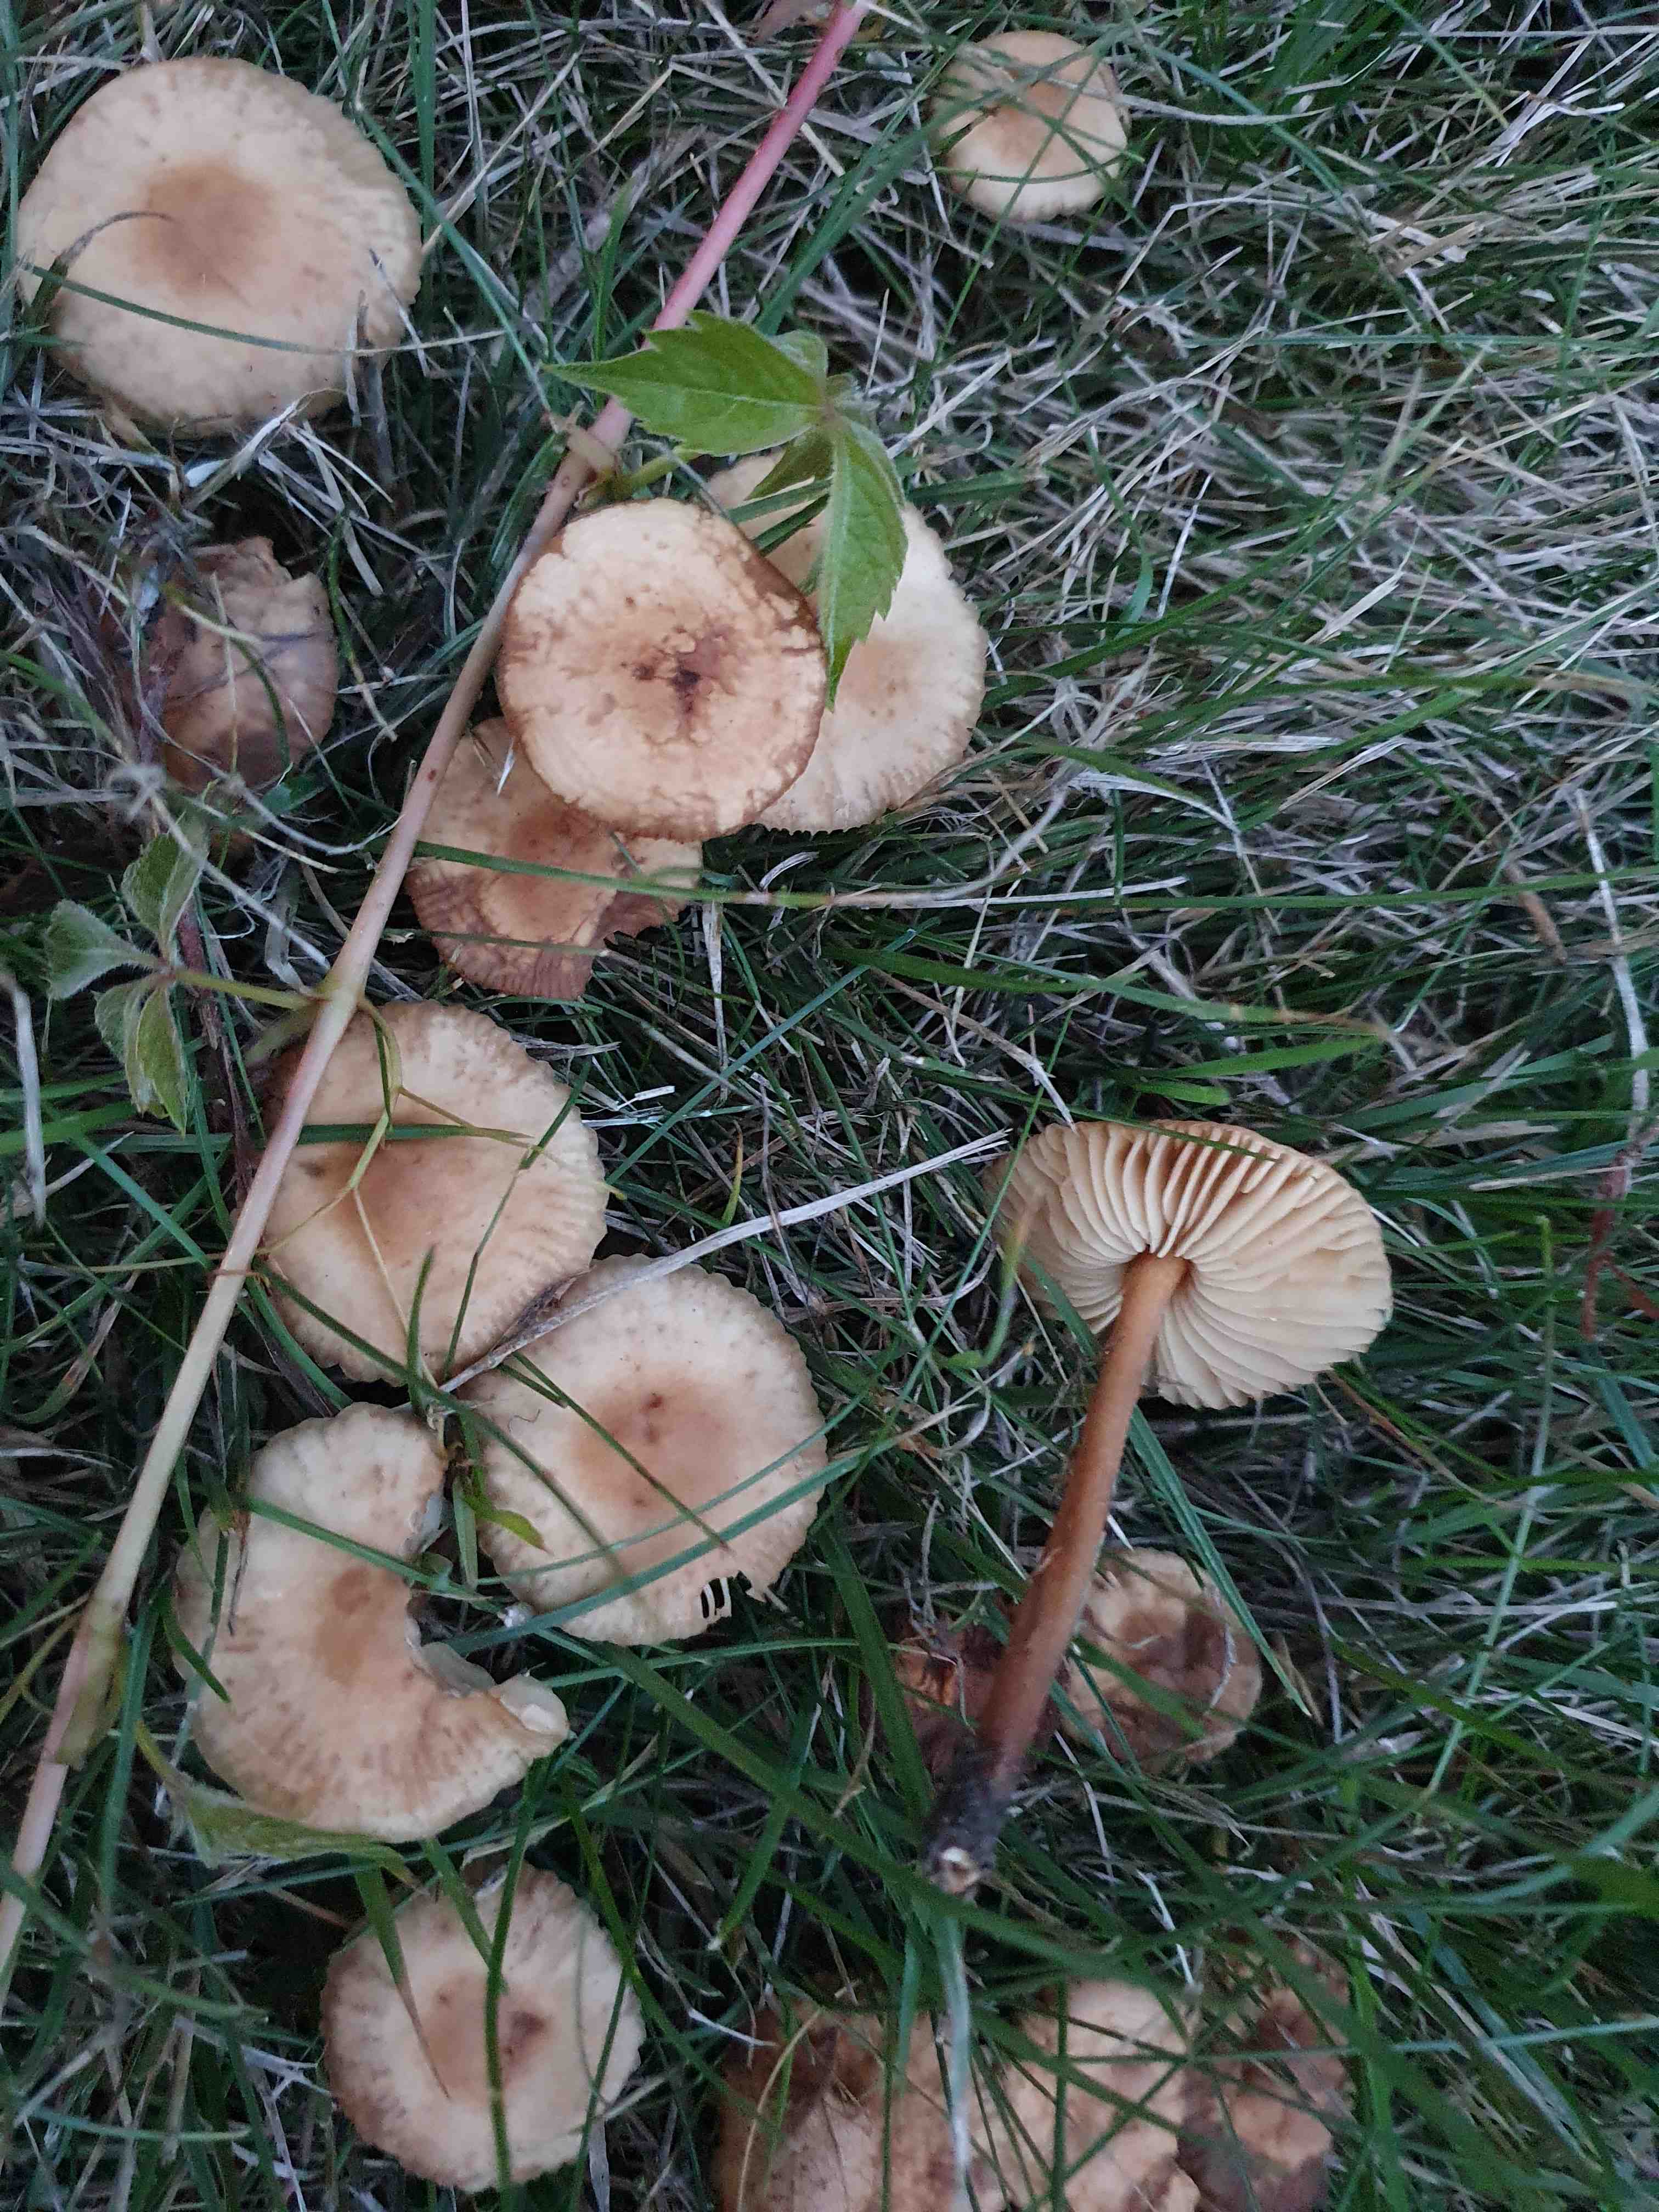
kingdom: Fungi
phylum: Basidiomycota
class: Agaricomycetes
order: Agaricales
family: Marasmiaceae
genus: Marasmius
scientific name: Marasmius oreades
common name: elledans-bruskhat
